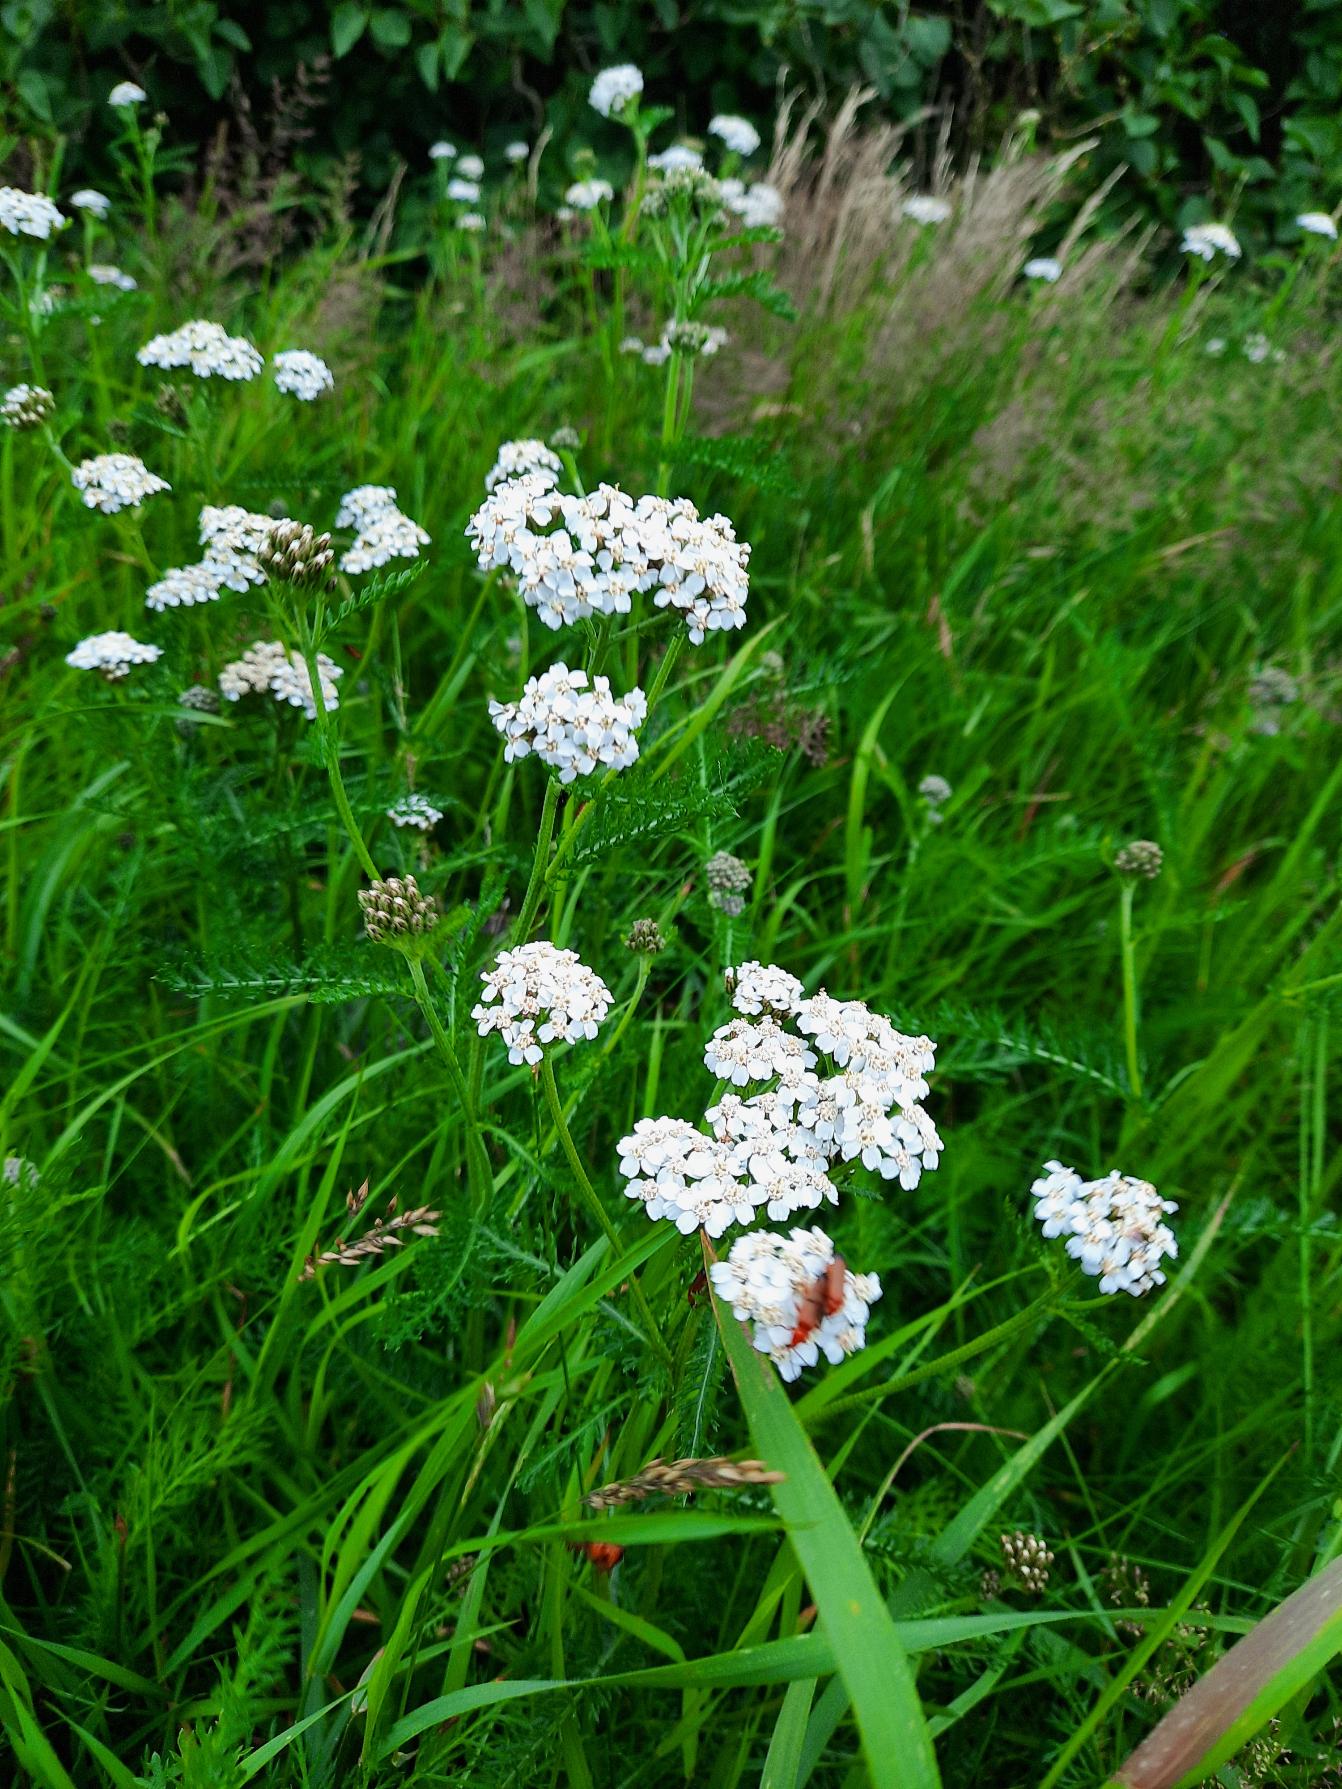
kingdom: Plantae
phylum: Tracheophyta
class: Magnoliopsida
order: Asterales
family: Asteraceae
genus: Achillea
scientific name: Achillea millefolium
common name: Almindelig røllike
